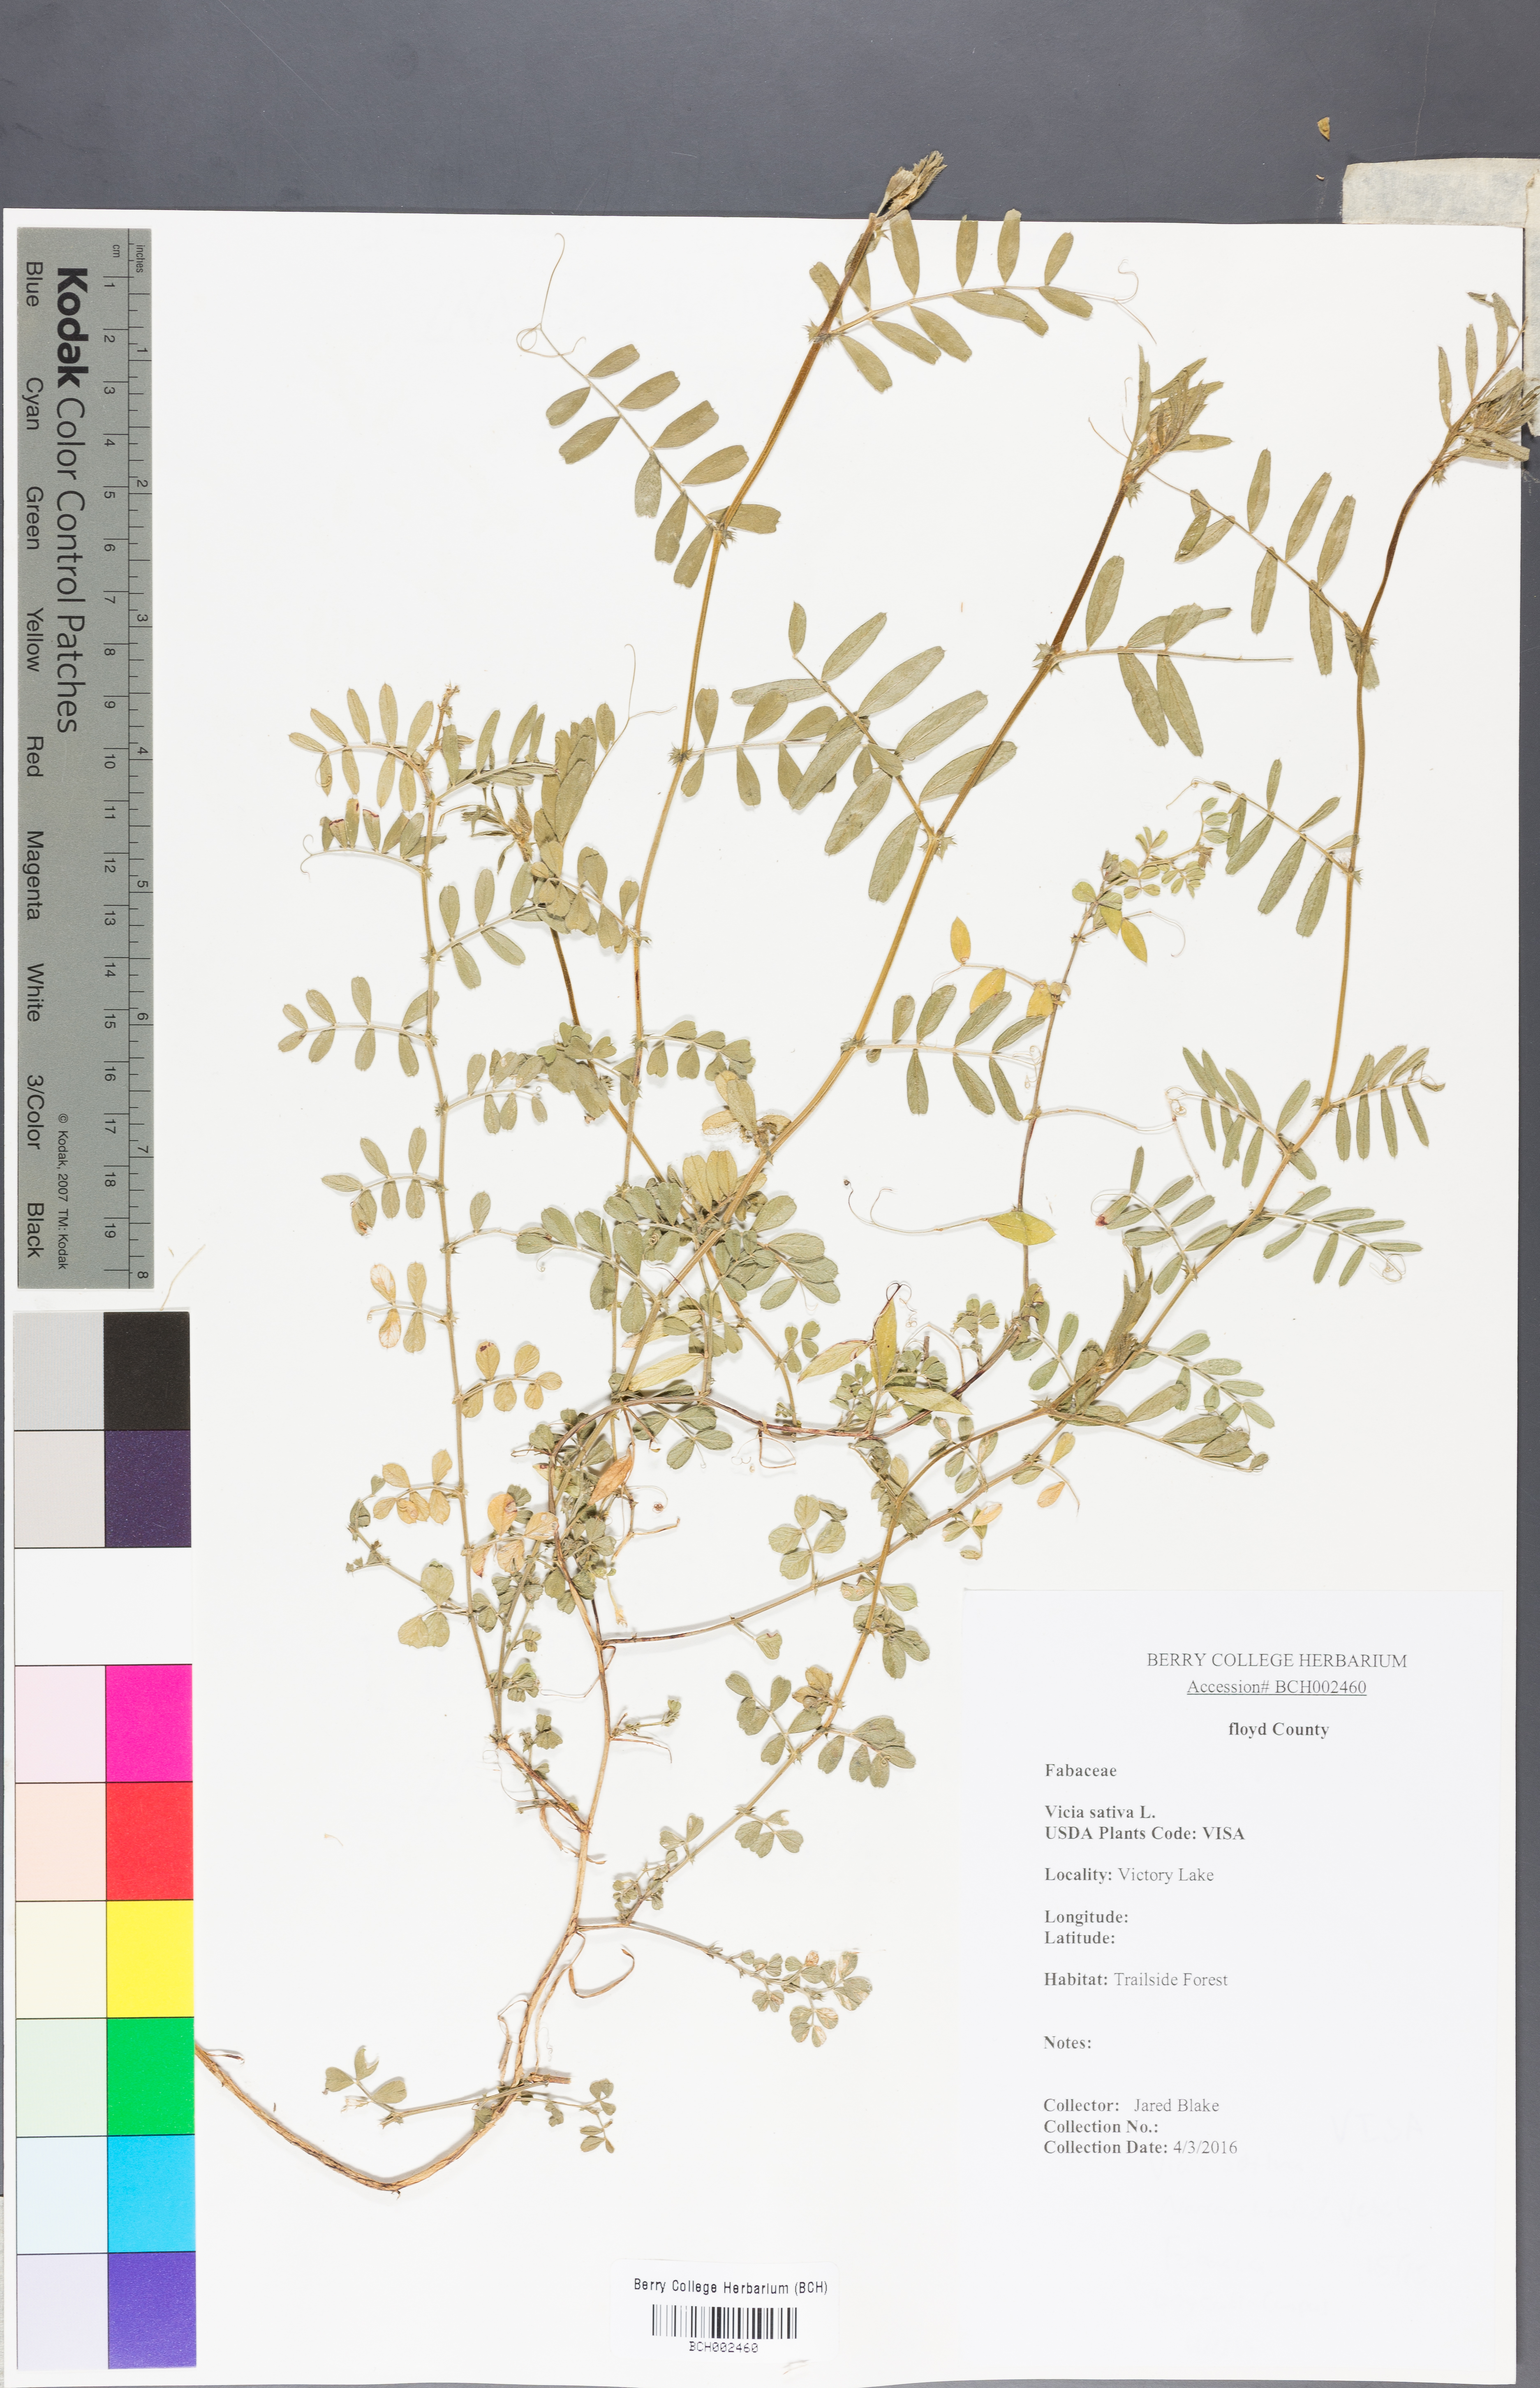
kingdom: Plantae
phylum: Tracheophyta
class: Magnoliopsida
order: Fabales
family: Fabaceae
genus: Vicia
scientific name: Vicia sativa
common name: Garden vetch
